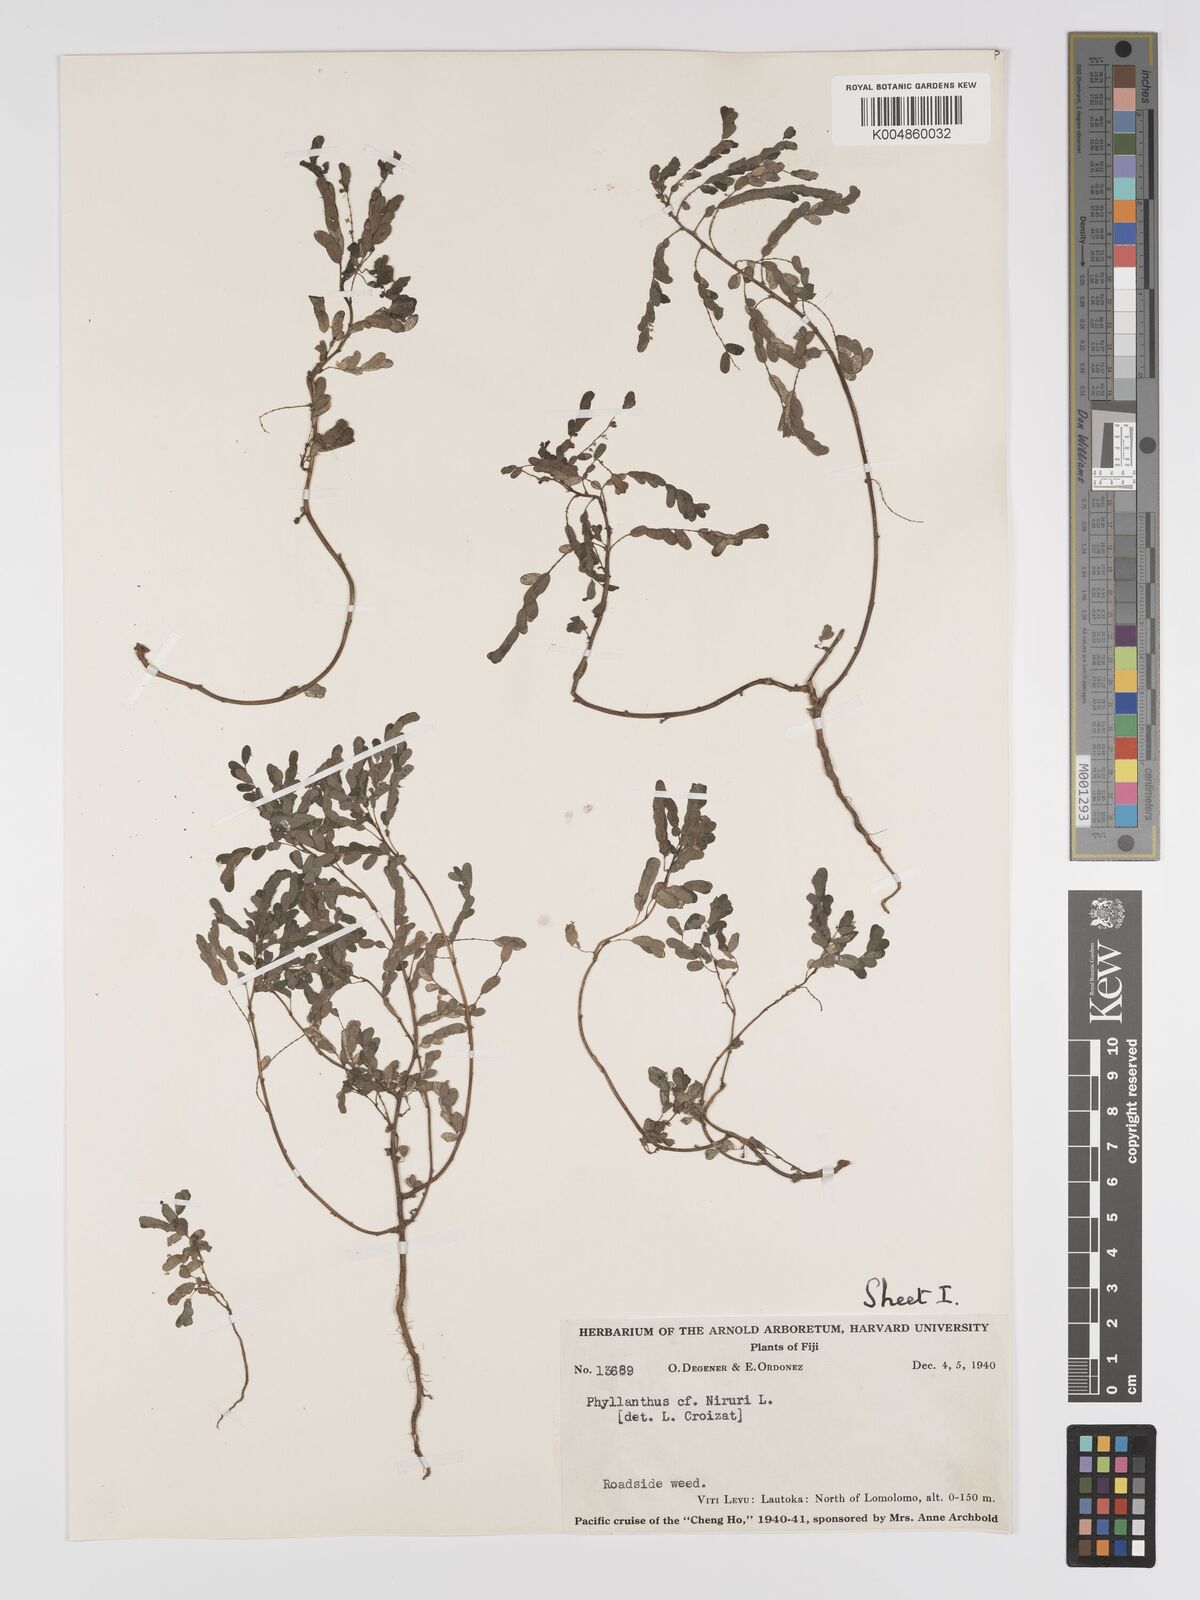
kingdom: Plantae
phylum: Tracheophyta
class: Magnoliopsida
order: Malpighiales
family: Phyllanthaceae
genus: Phyllanthus
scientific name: Phyllanthus
